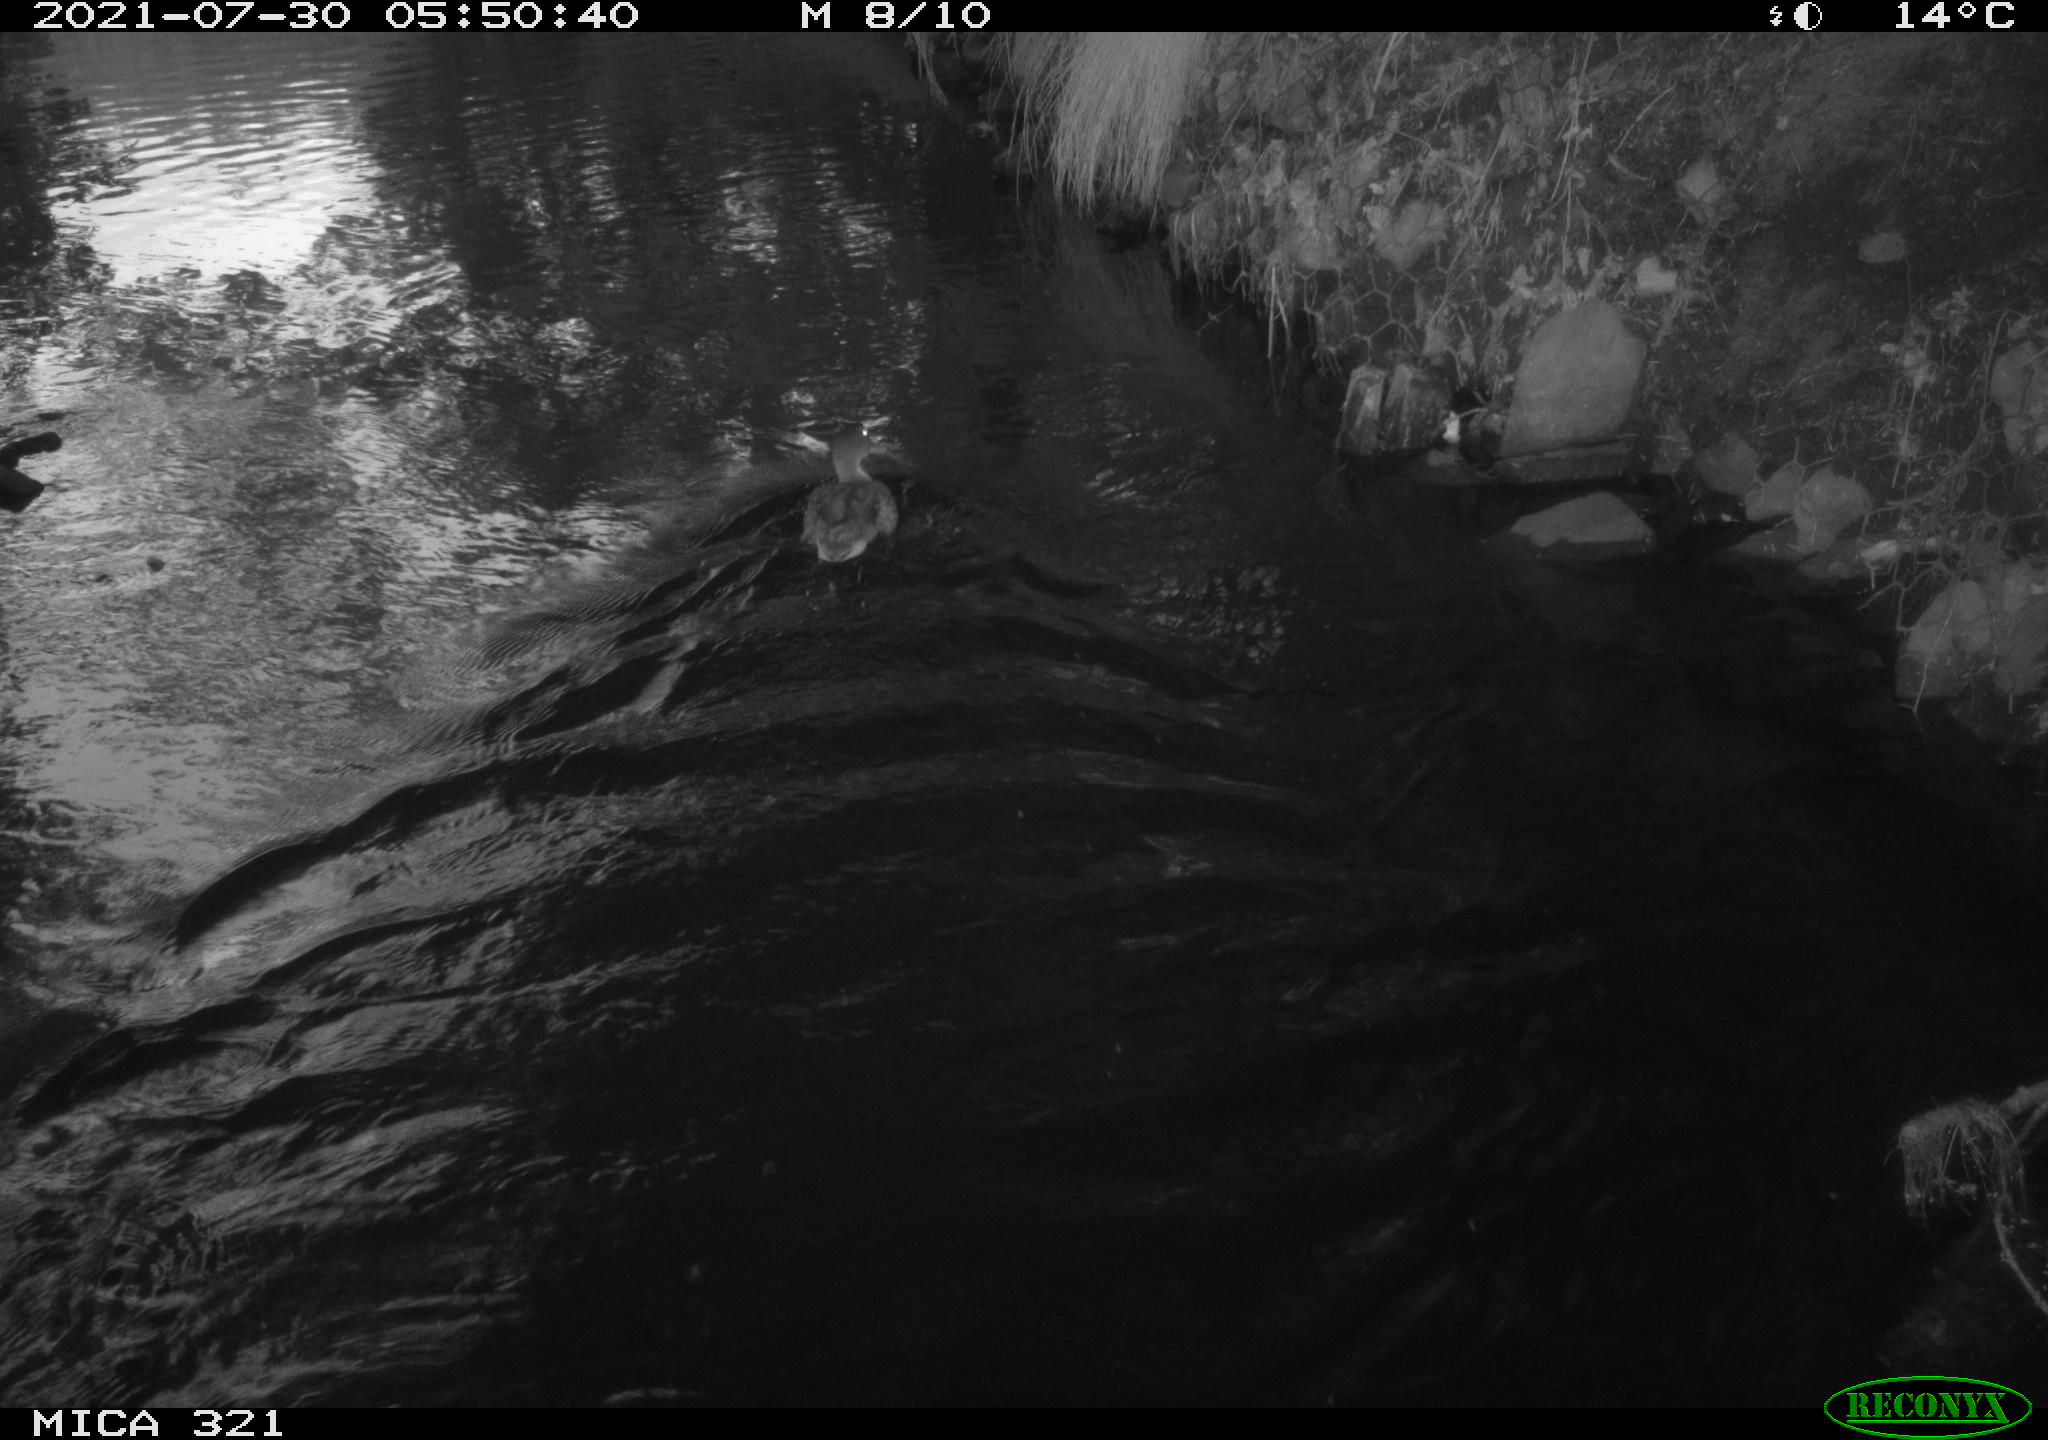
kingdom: Animalia
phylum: Chordata
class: Aves
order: Anseriformes
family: Anatidae
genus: Anas
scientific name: Anas platyrhynchos
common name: Mallard
